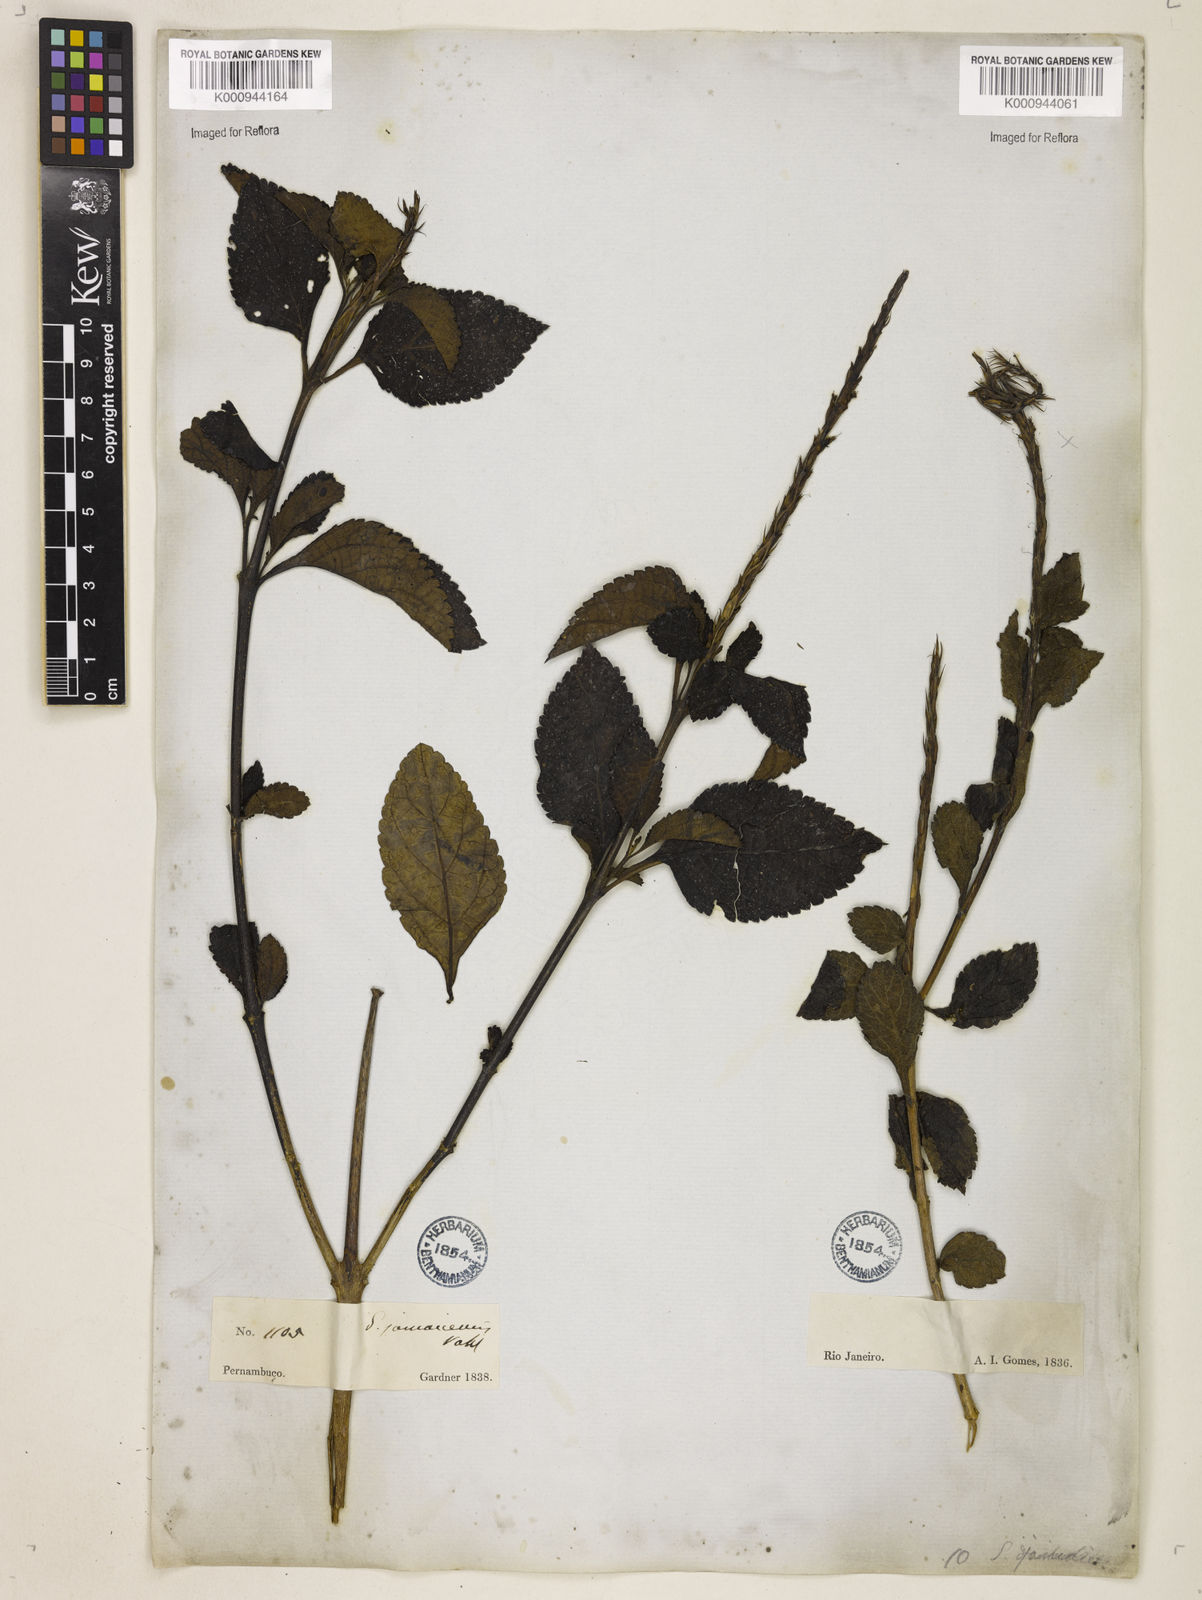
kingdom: Plantae
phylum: Tracheophyta
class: Magnoliopsida
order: Lamiales
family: Verbenaceae
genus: Stachytarpheta
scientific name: Stachytarpheta jamaicensis
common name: Light-blue snakeweed
